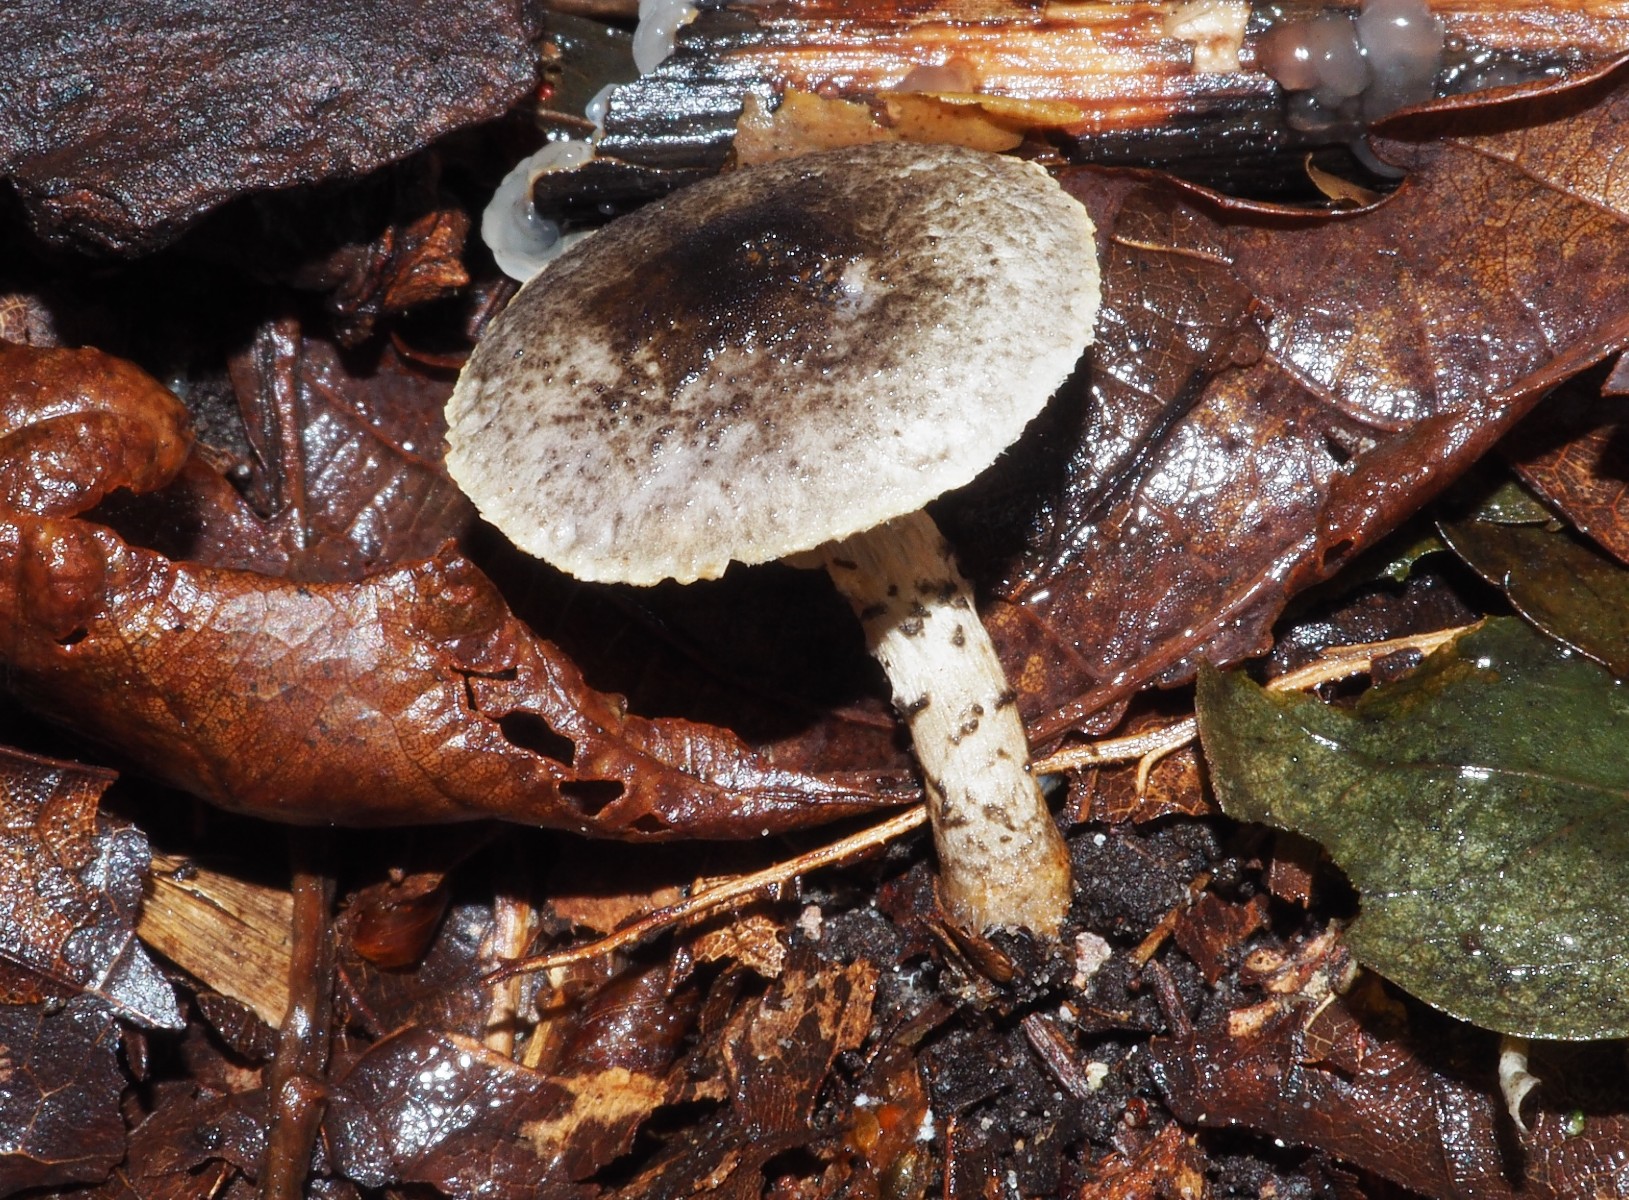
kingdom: Fungi
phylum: Basidiomycota
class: Agaricomycetes
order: Agaricales
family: Agaricaceae
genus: Lepiota
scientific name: Lepiota griseovirens
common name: grågrøn parasolhat
